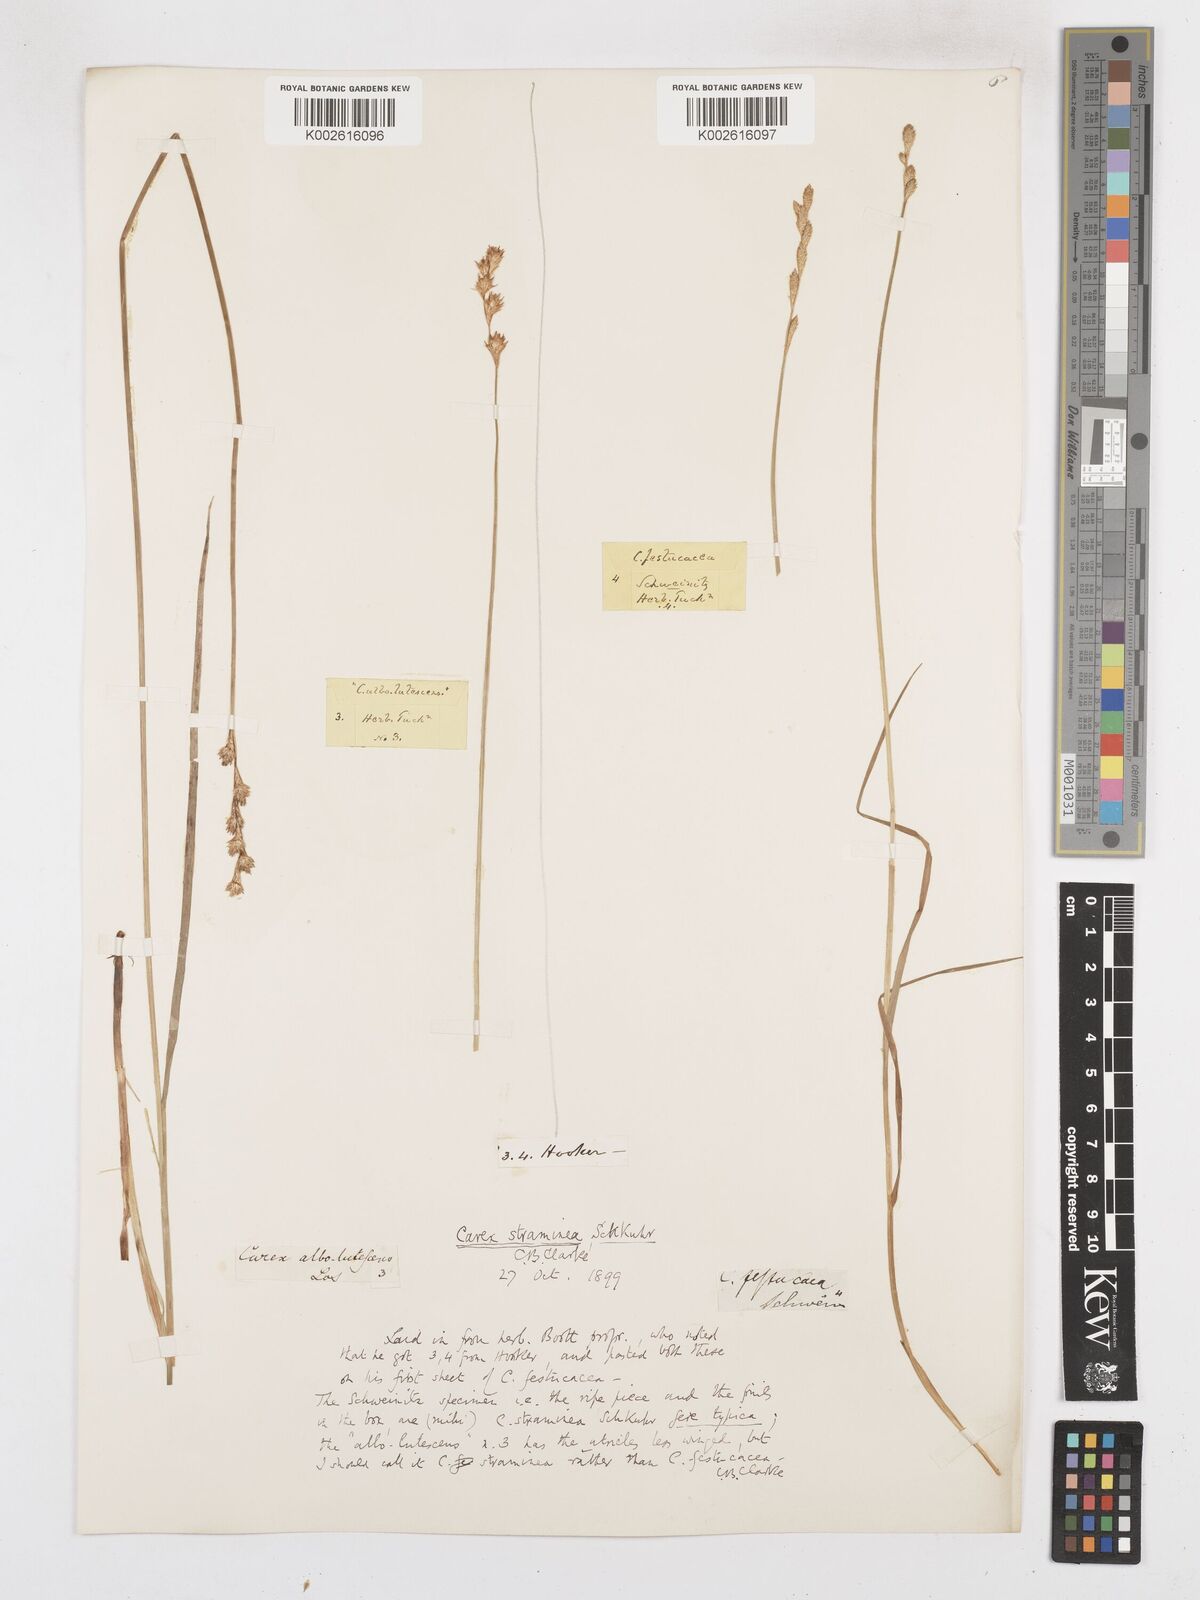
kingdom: Plantae
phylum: Tracheophyta
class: Liliopsida
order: Poales
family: Cyperaceae
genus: Carex
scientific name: Carex brevior
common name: Brevior sedge
